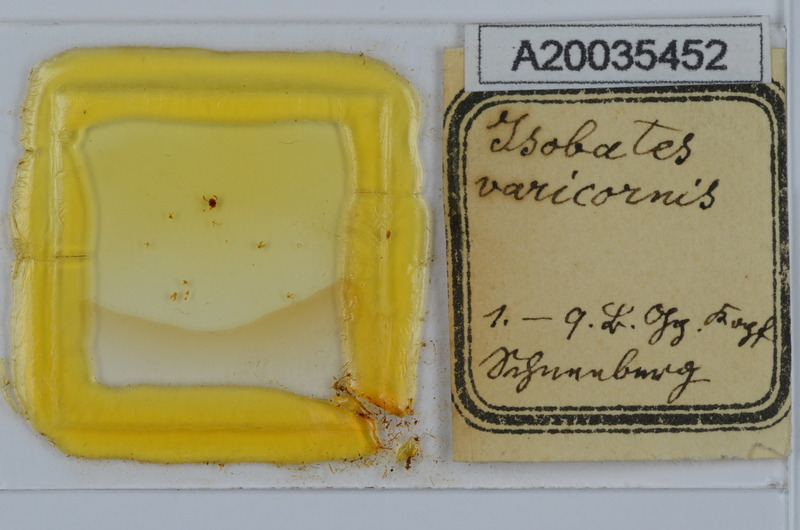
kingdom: Animalia
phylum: Arthropoda
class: Diplopoda
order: Julida
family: Nemasomatidae
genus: Isobates
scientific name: Isobates varicornis
